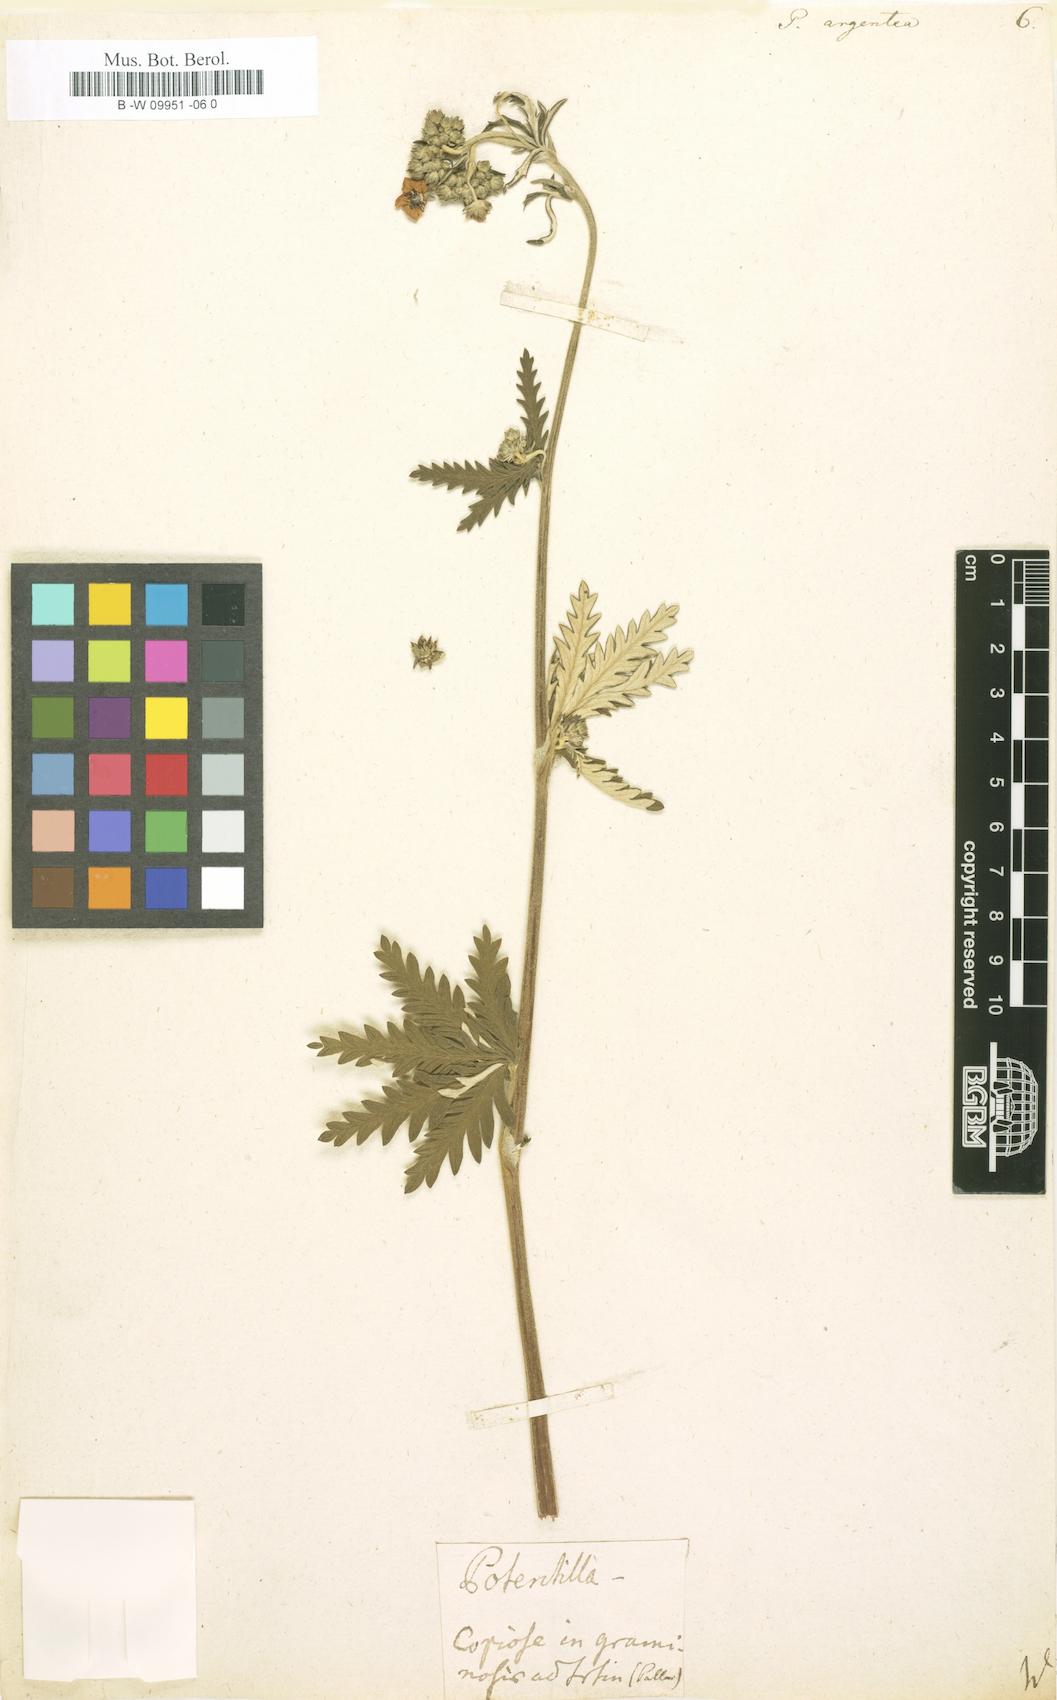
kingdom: Plantae
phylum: Tracheophyta
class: Magnoliopsida
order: Rosales
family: Rosaceae
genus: Potentilla
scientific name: Potentilla argentea
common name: Hoary cinquefoil
